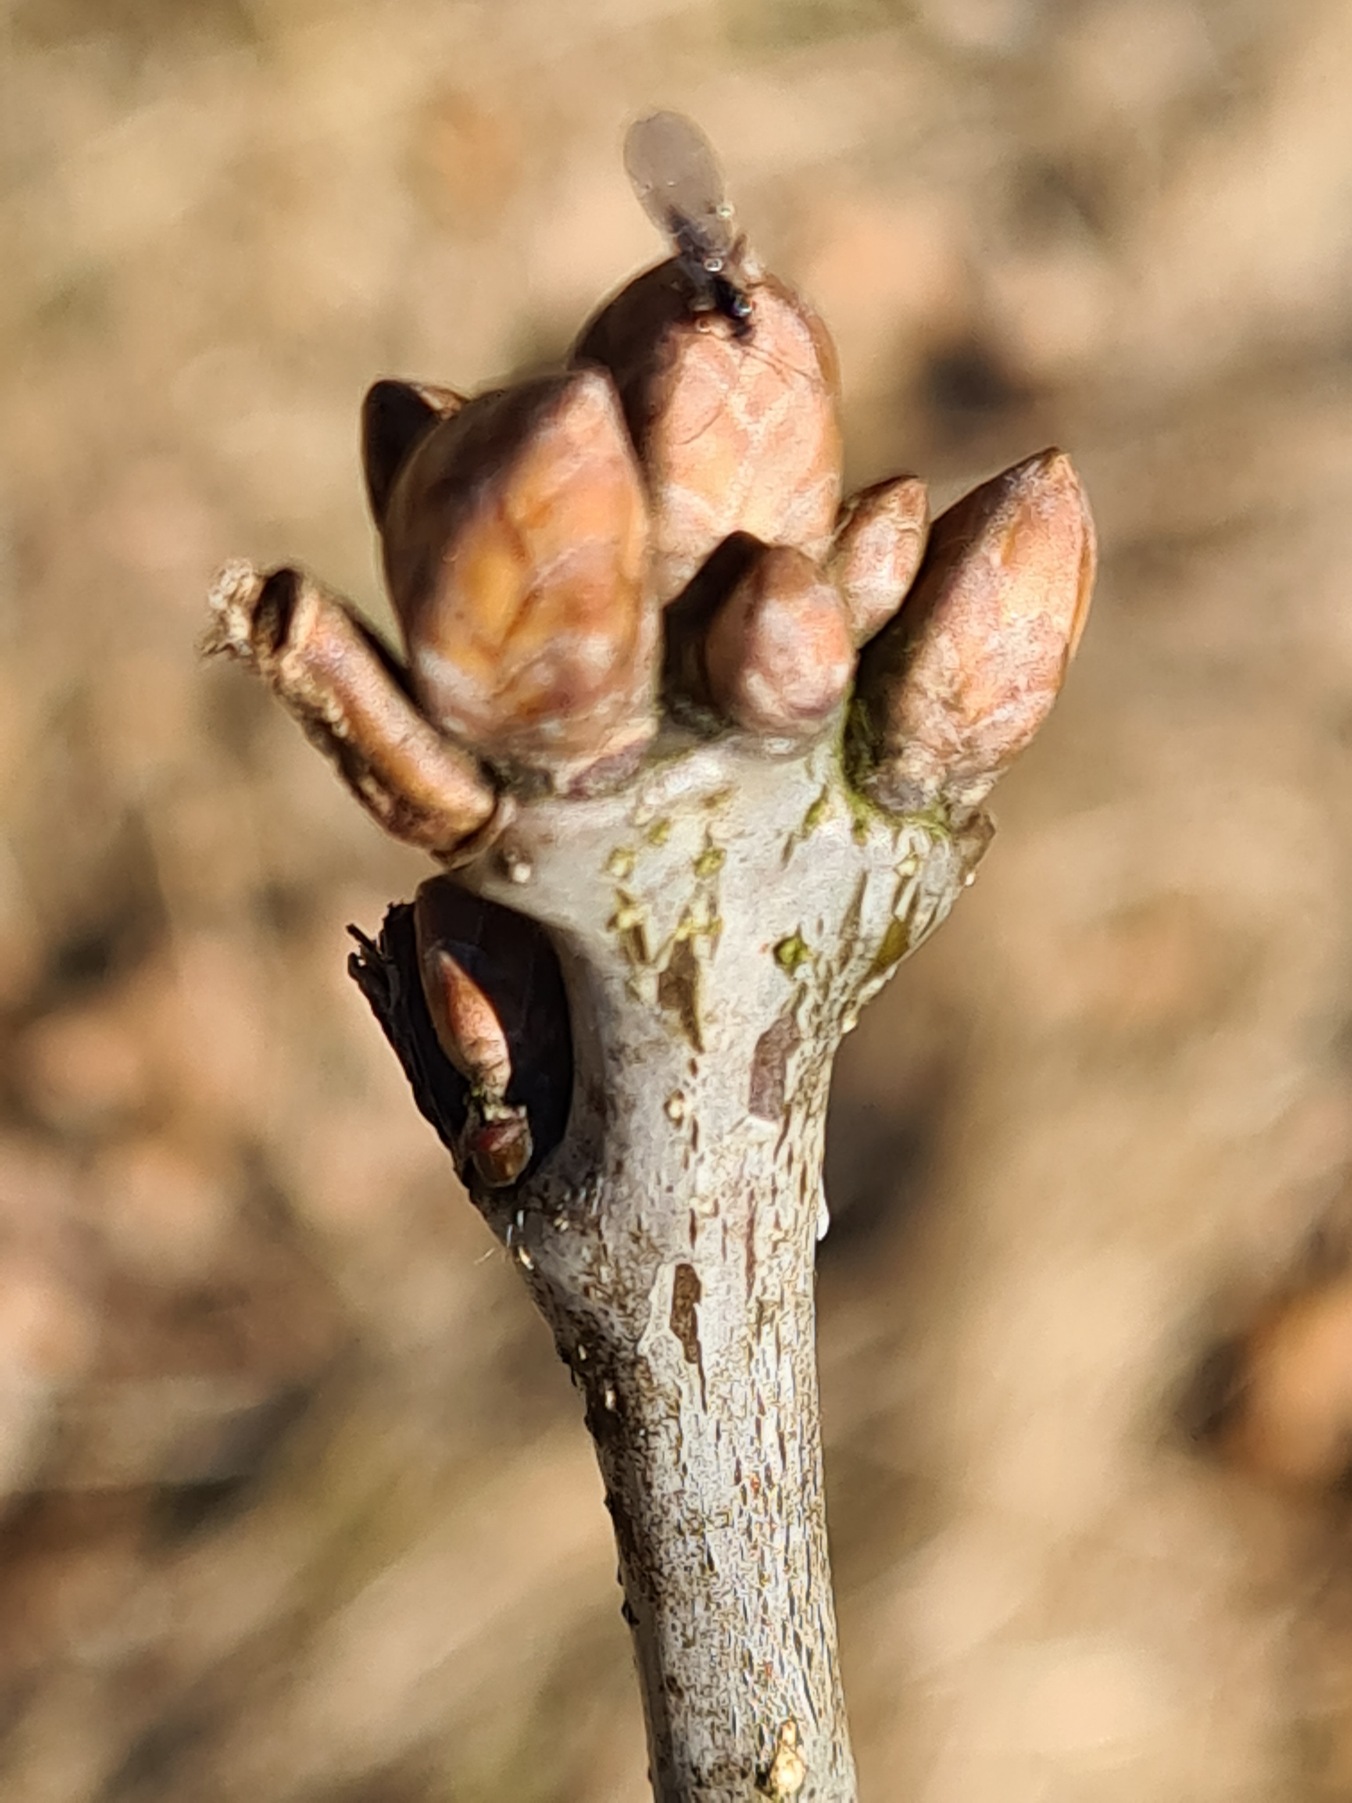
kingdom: Plantae
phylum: Tracheophyta
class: Magnoliopsida
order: Fagales
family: Fagaceae
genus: Quercus
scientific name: Quercus robur
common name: Stilk-eg/almindelig eg
